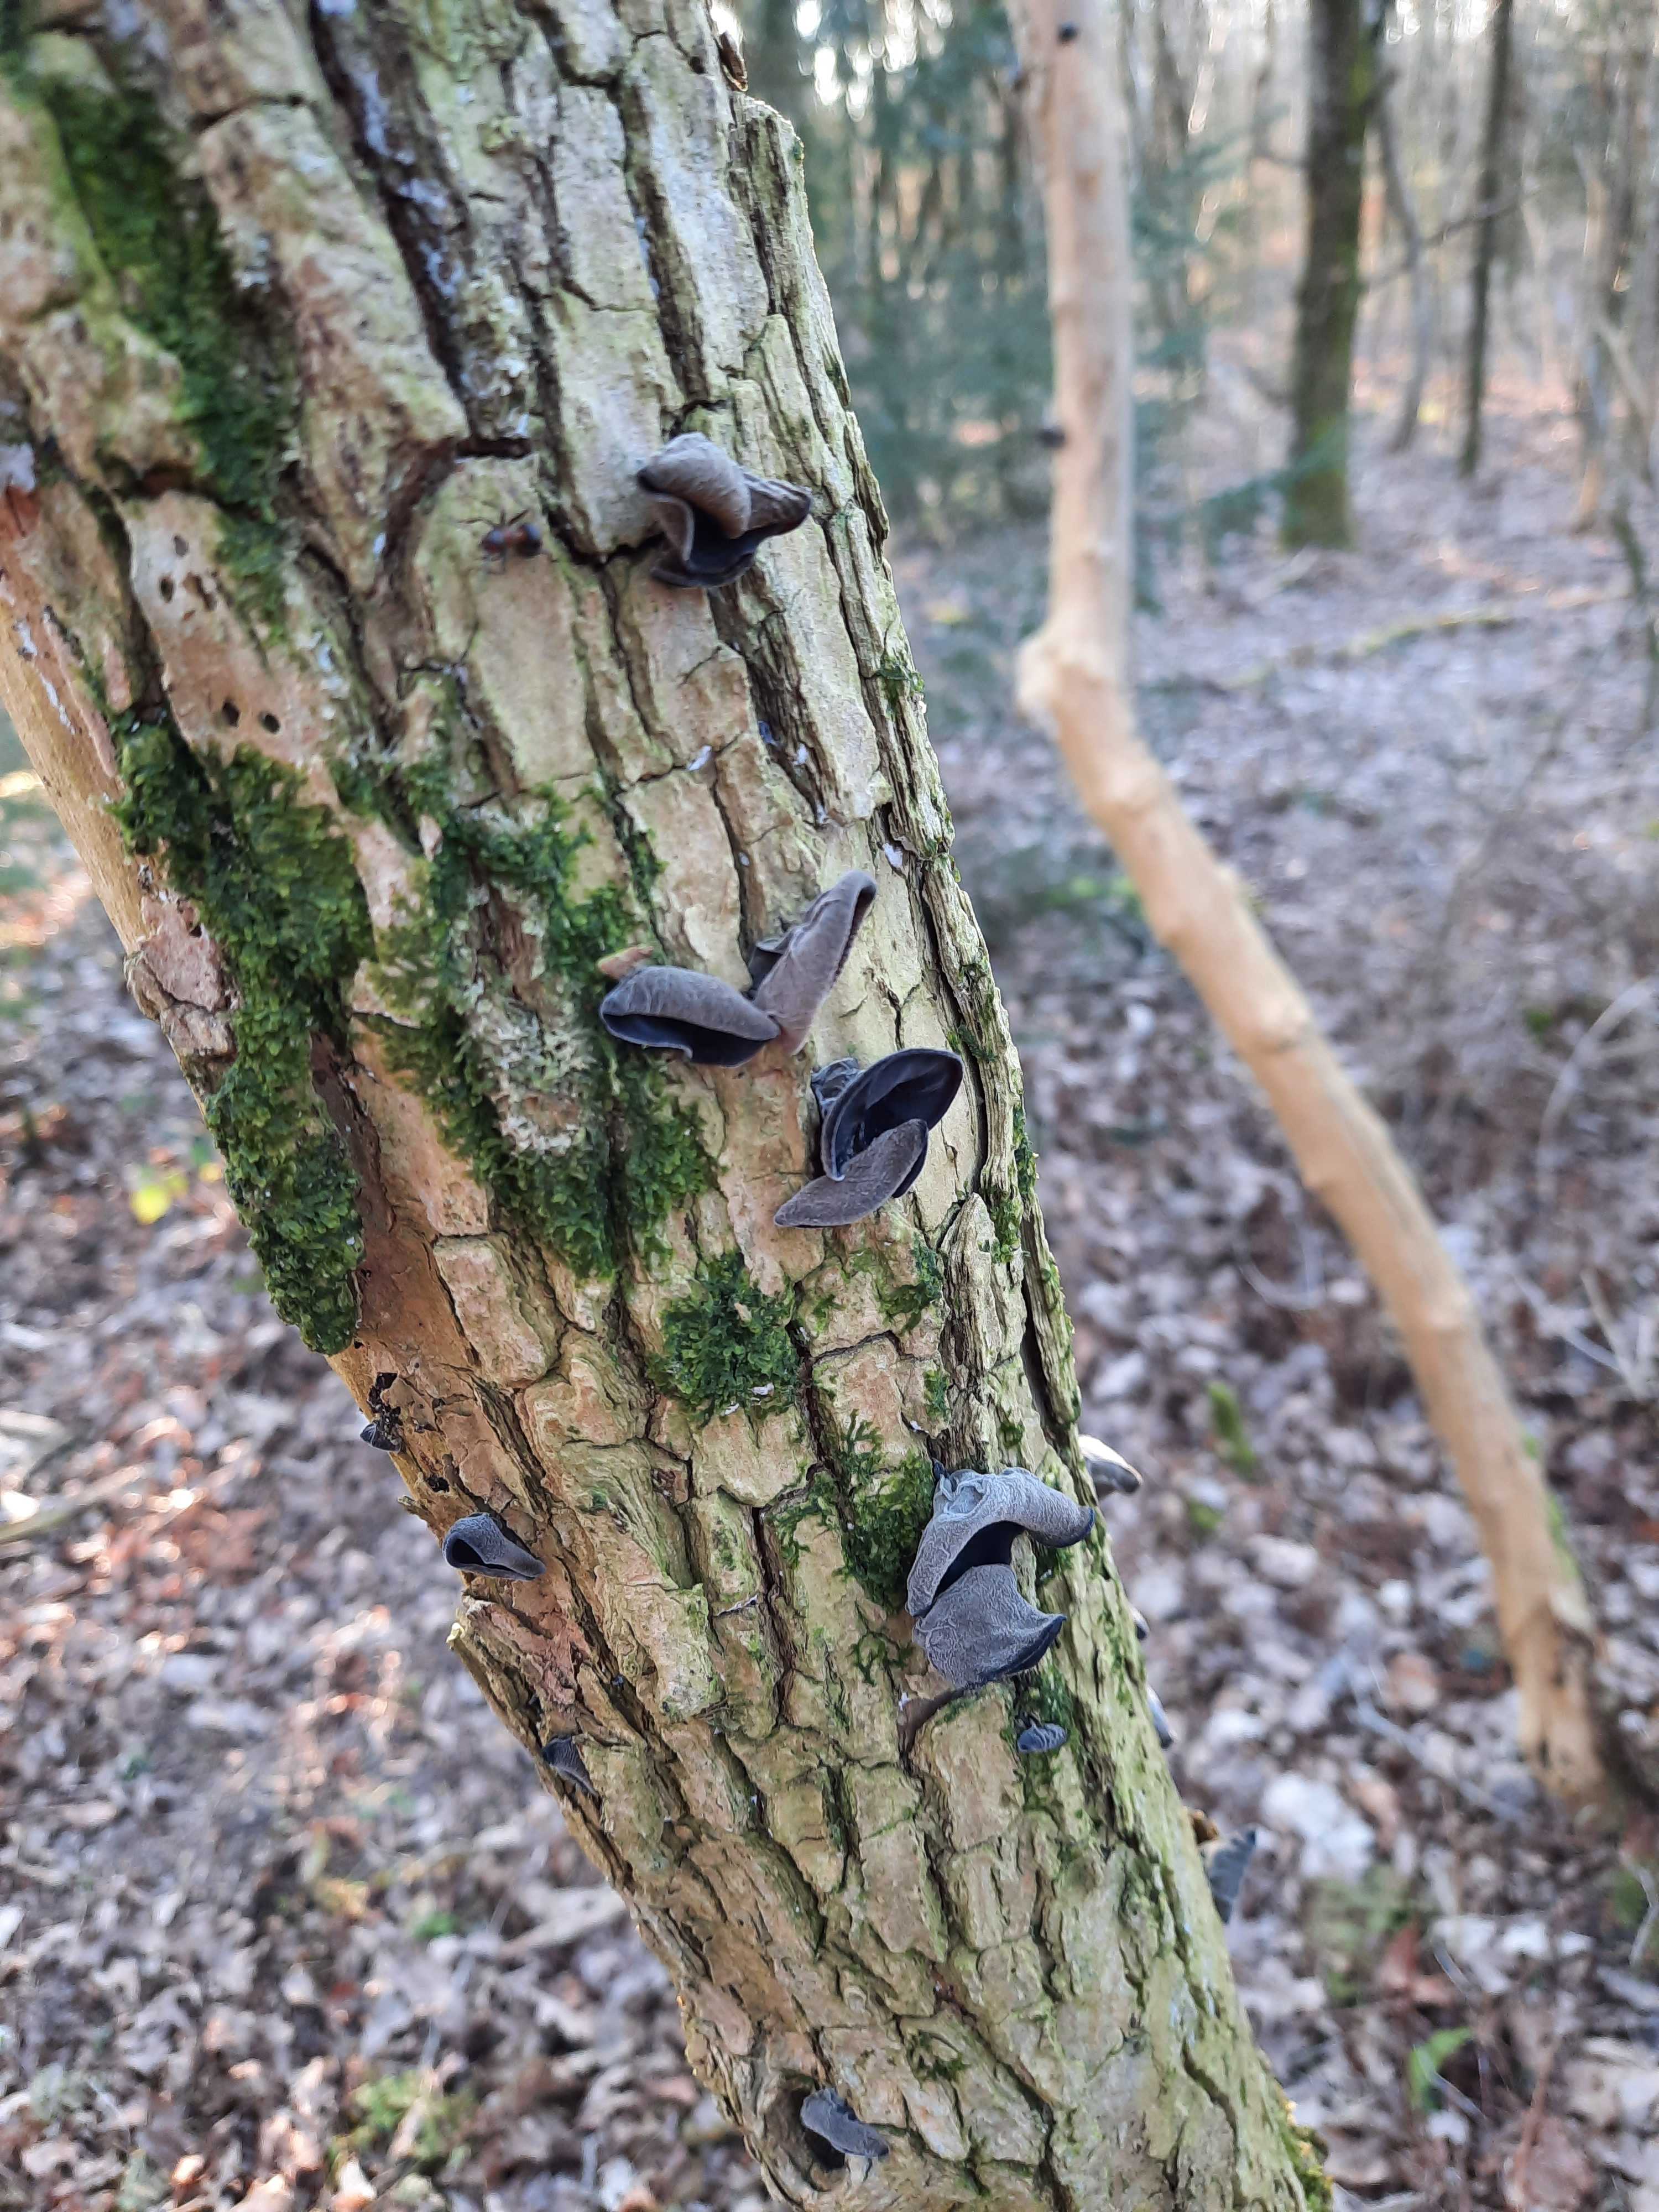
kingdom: Fungi
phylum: Basidiomycota
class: Agaricomycetes
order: Auriculariales
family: Auriculariaceae
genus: Auricularia
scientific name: Auricularia auricula-judae
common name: almindelig judasøre
